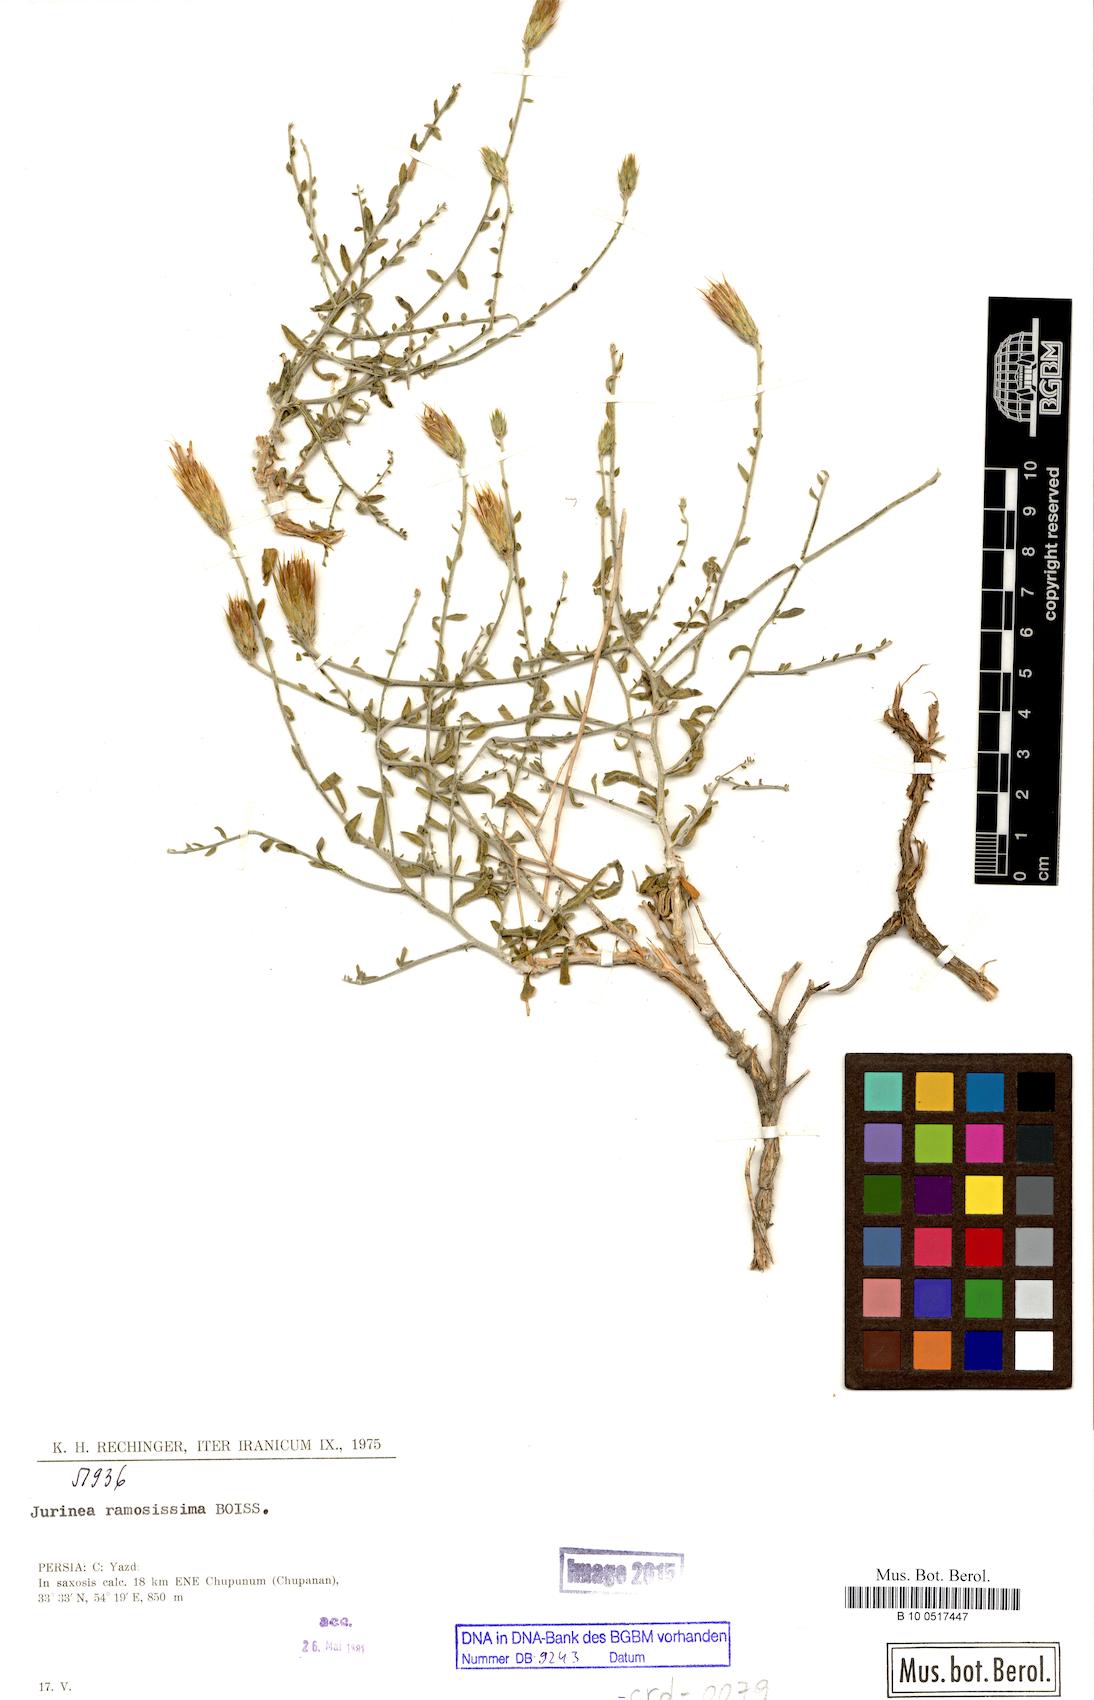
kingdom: Plantae
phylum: Tracheophyta
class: Magnoliopsida
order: Asterales
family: Asteraceae
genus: Jurinea
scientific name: Jurinea ramosissima
